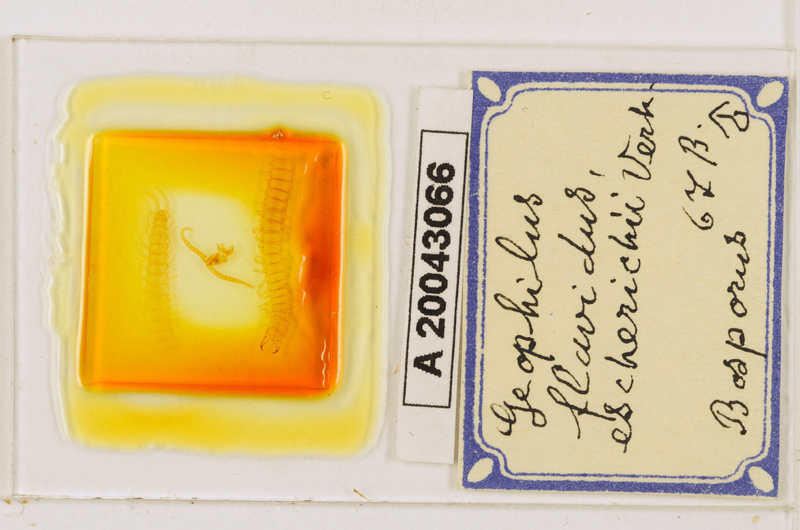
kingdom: Animalia
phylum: Arthropoda
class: Chilopoda
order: Geophilomorpha
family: Geophilidae
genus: Clinopodes
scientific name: Clinopodes flavidus
